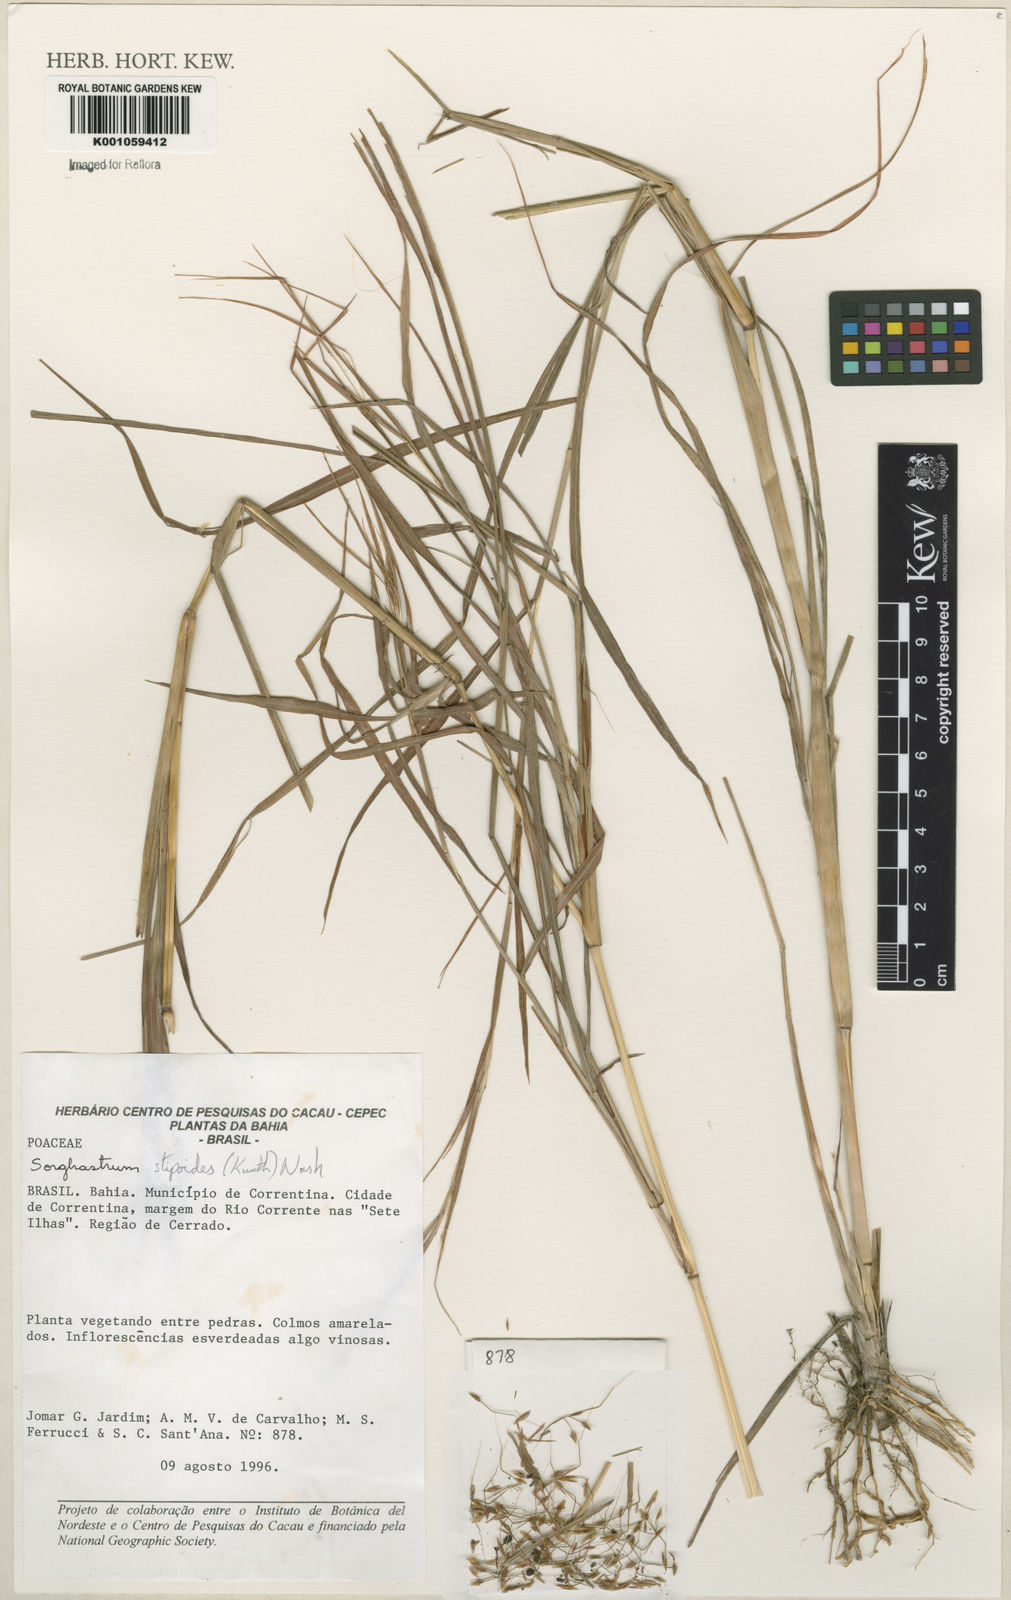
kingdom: Plantae
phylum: Tracheophyta
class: Liliopsida
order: Poales
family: Poaceae
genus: Sorghastrum
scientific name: Sorghastrum stipoides
